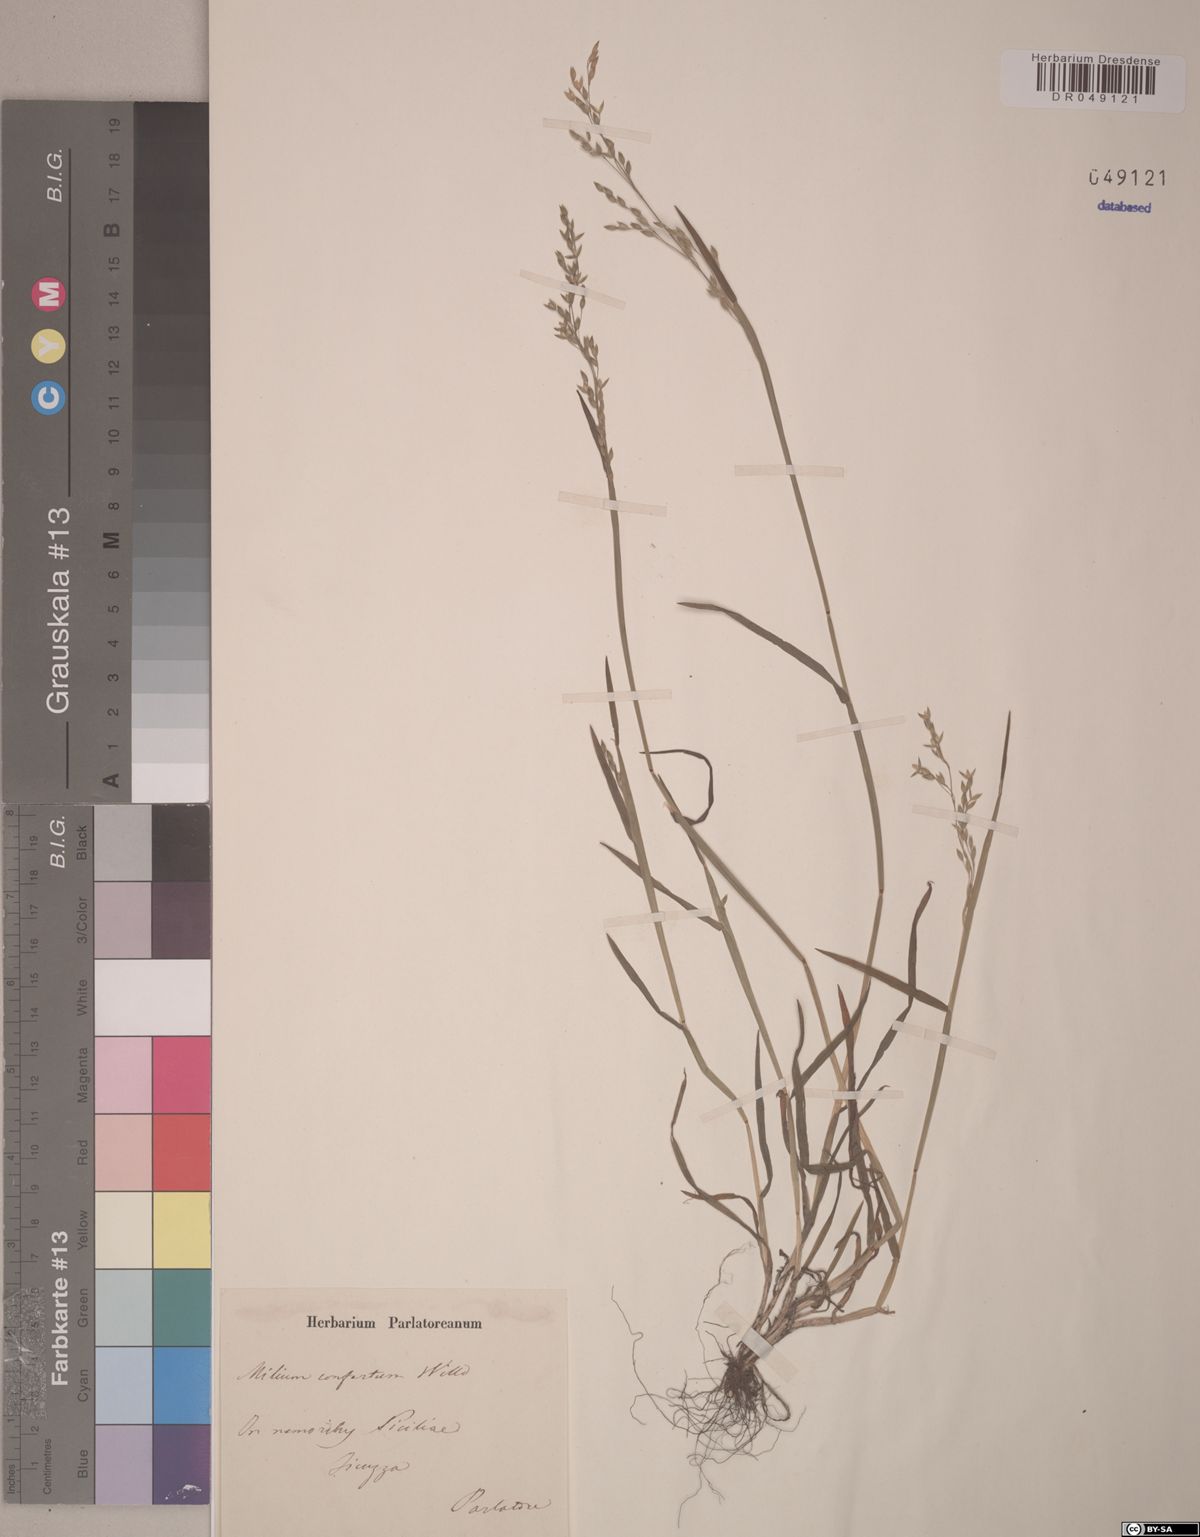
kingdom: Plantae
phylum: Tracheophyta
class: Liliopsida
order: Poales
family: Poaceae
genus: Milium
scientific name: Milium effusum
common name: Wood millet
